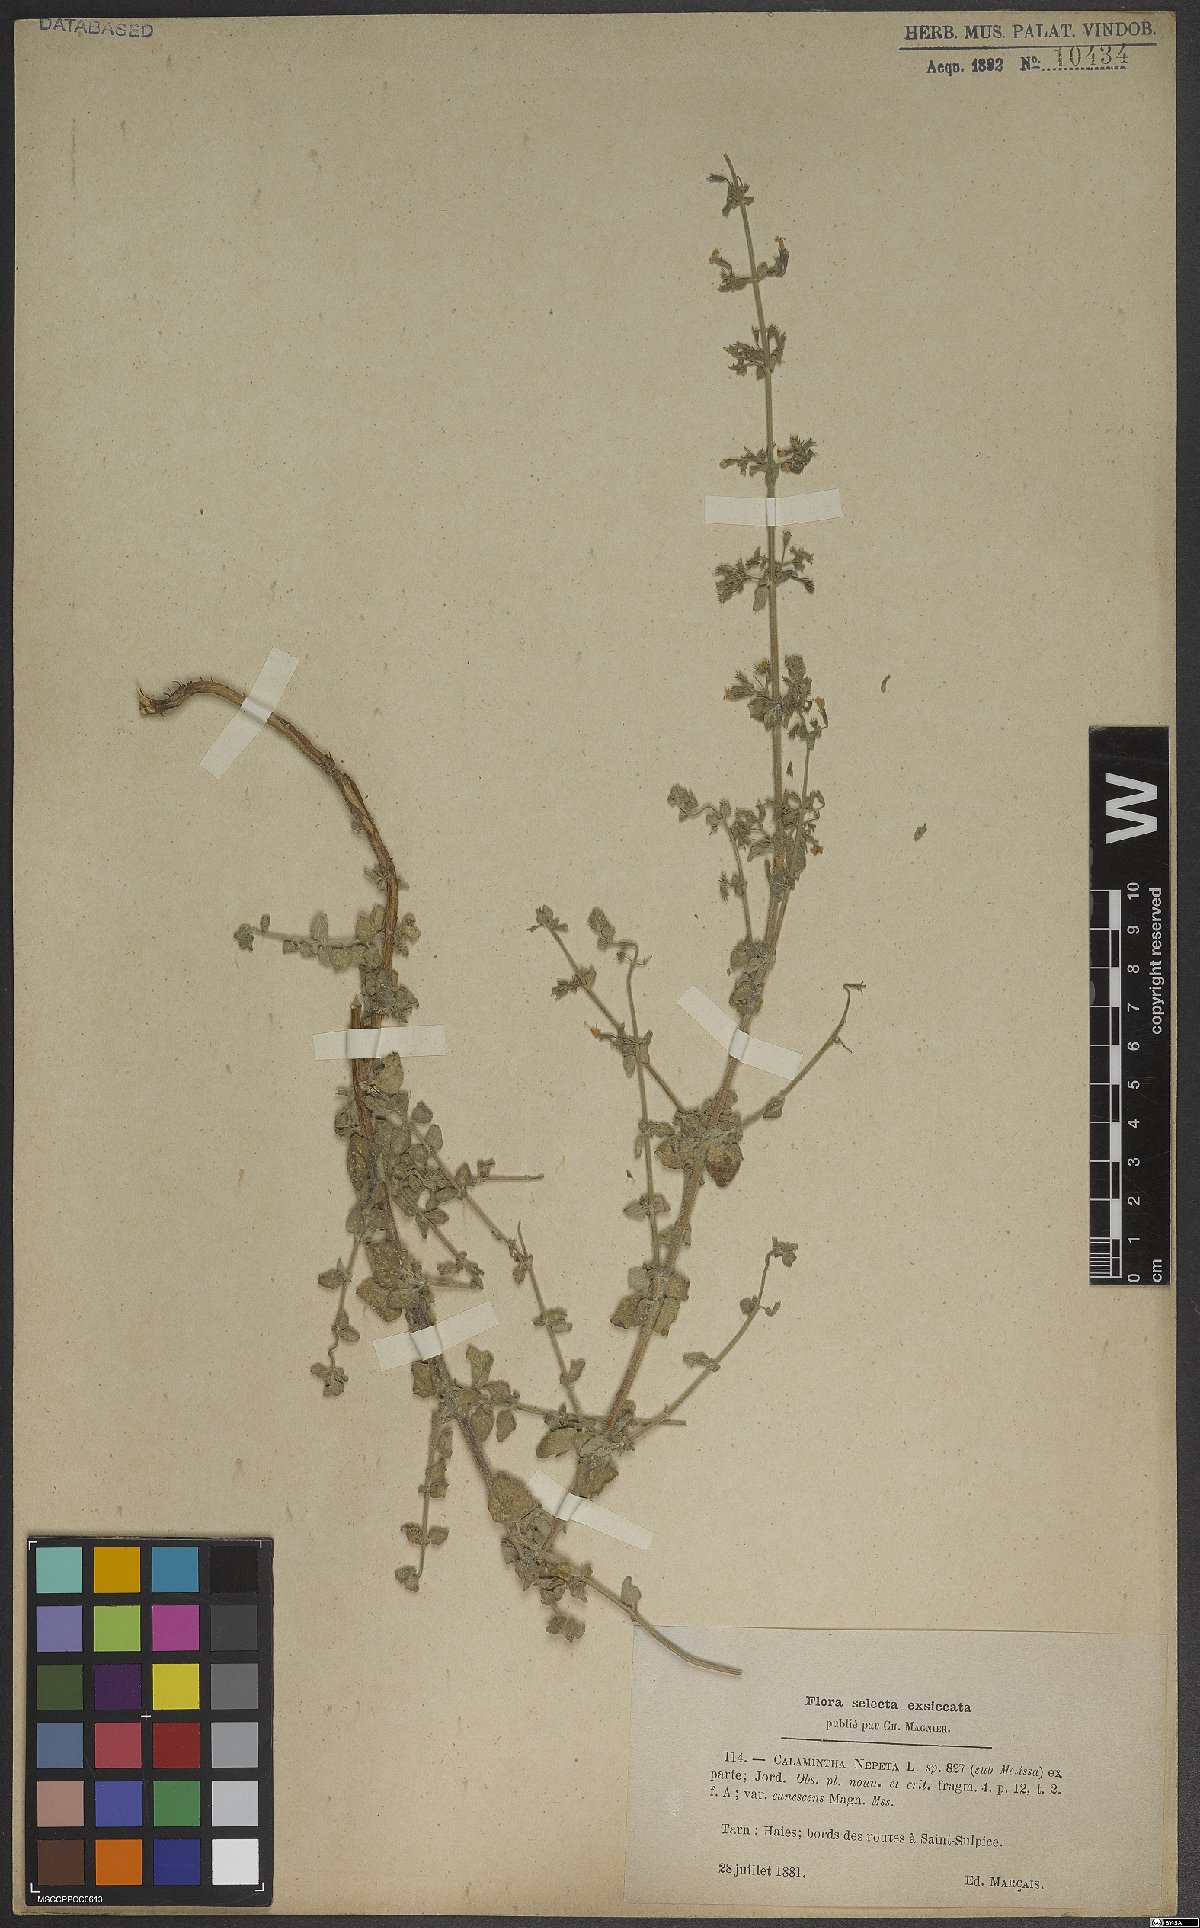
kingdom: Plantae
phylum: Tracheophyta
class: Magnoliopsida
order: Lamiales
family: Lamiaceae
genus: Clinopodium
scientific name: Clinopodium nepeta
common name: Lesser calamint
